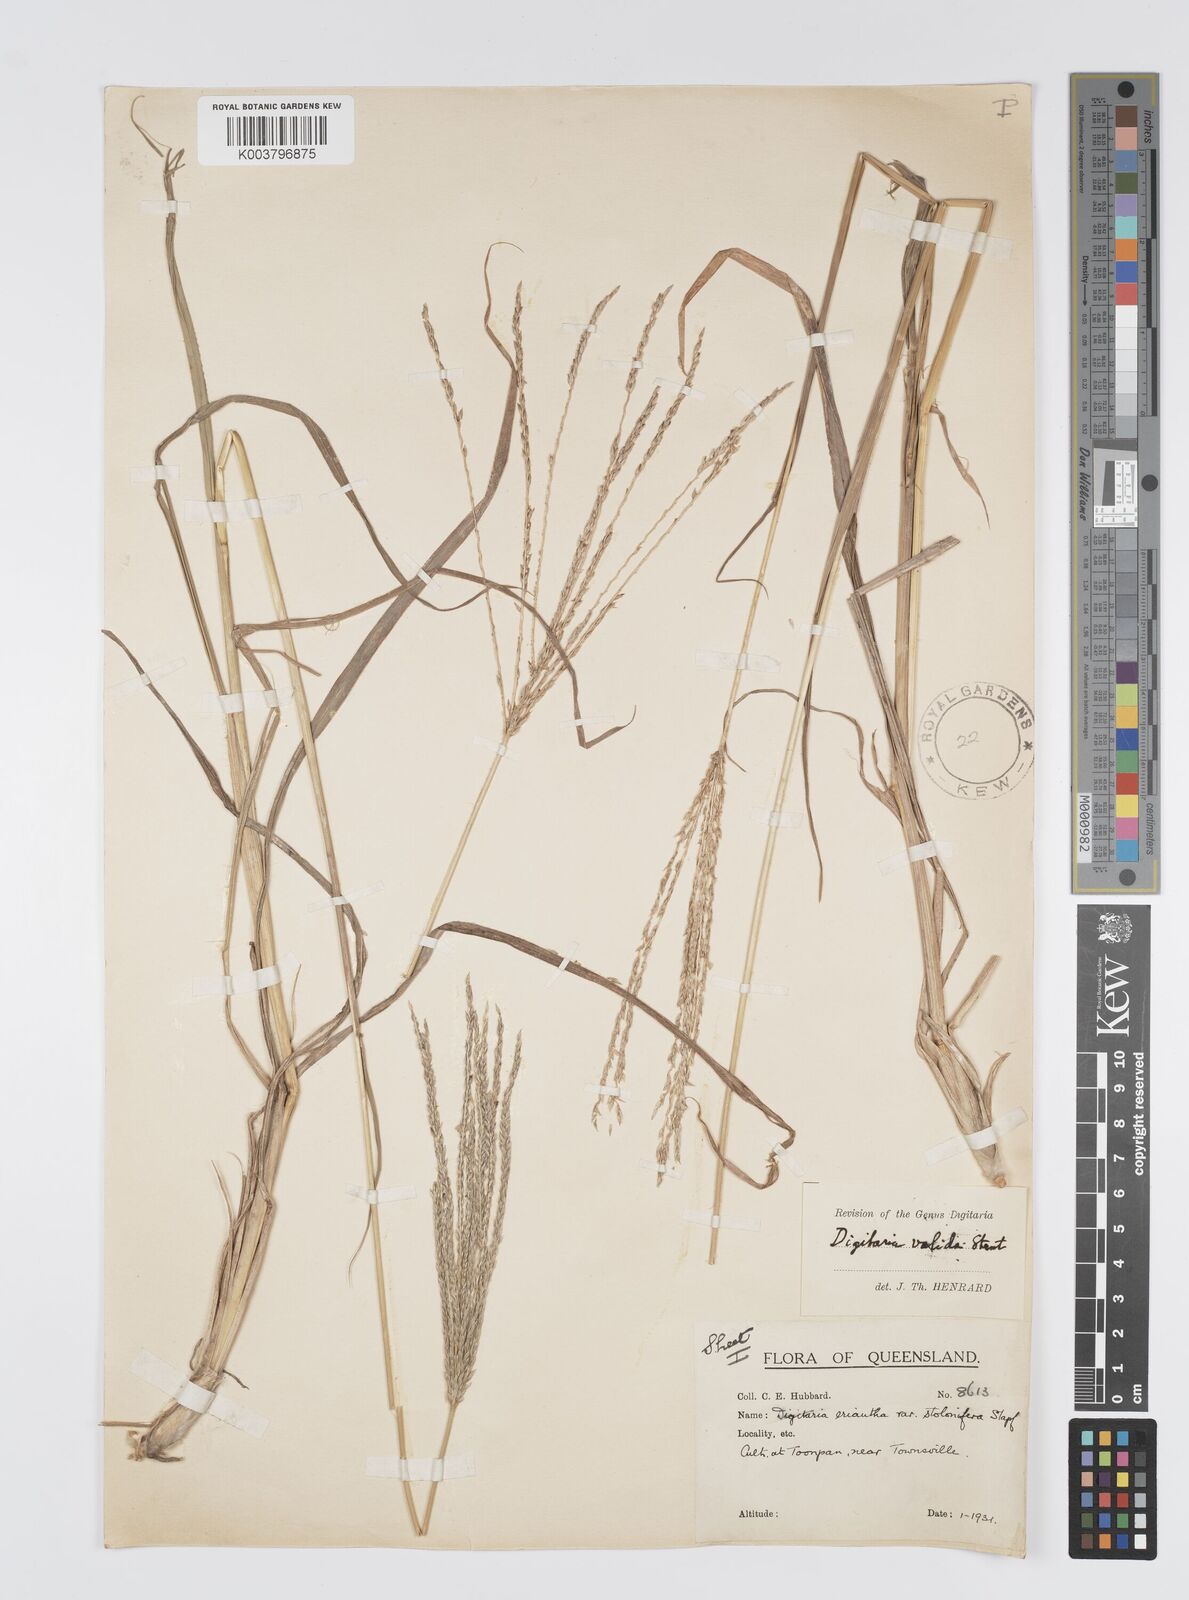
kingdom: Plantae
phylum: Tracheophyta
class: Liliopsida
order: Poales
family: Poaceae
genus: Digitaria
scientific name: Digitaria eriantha
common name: Digitgrass
